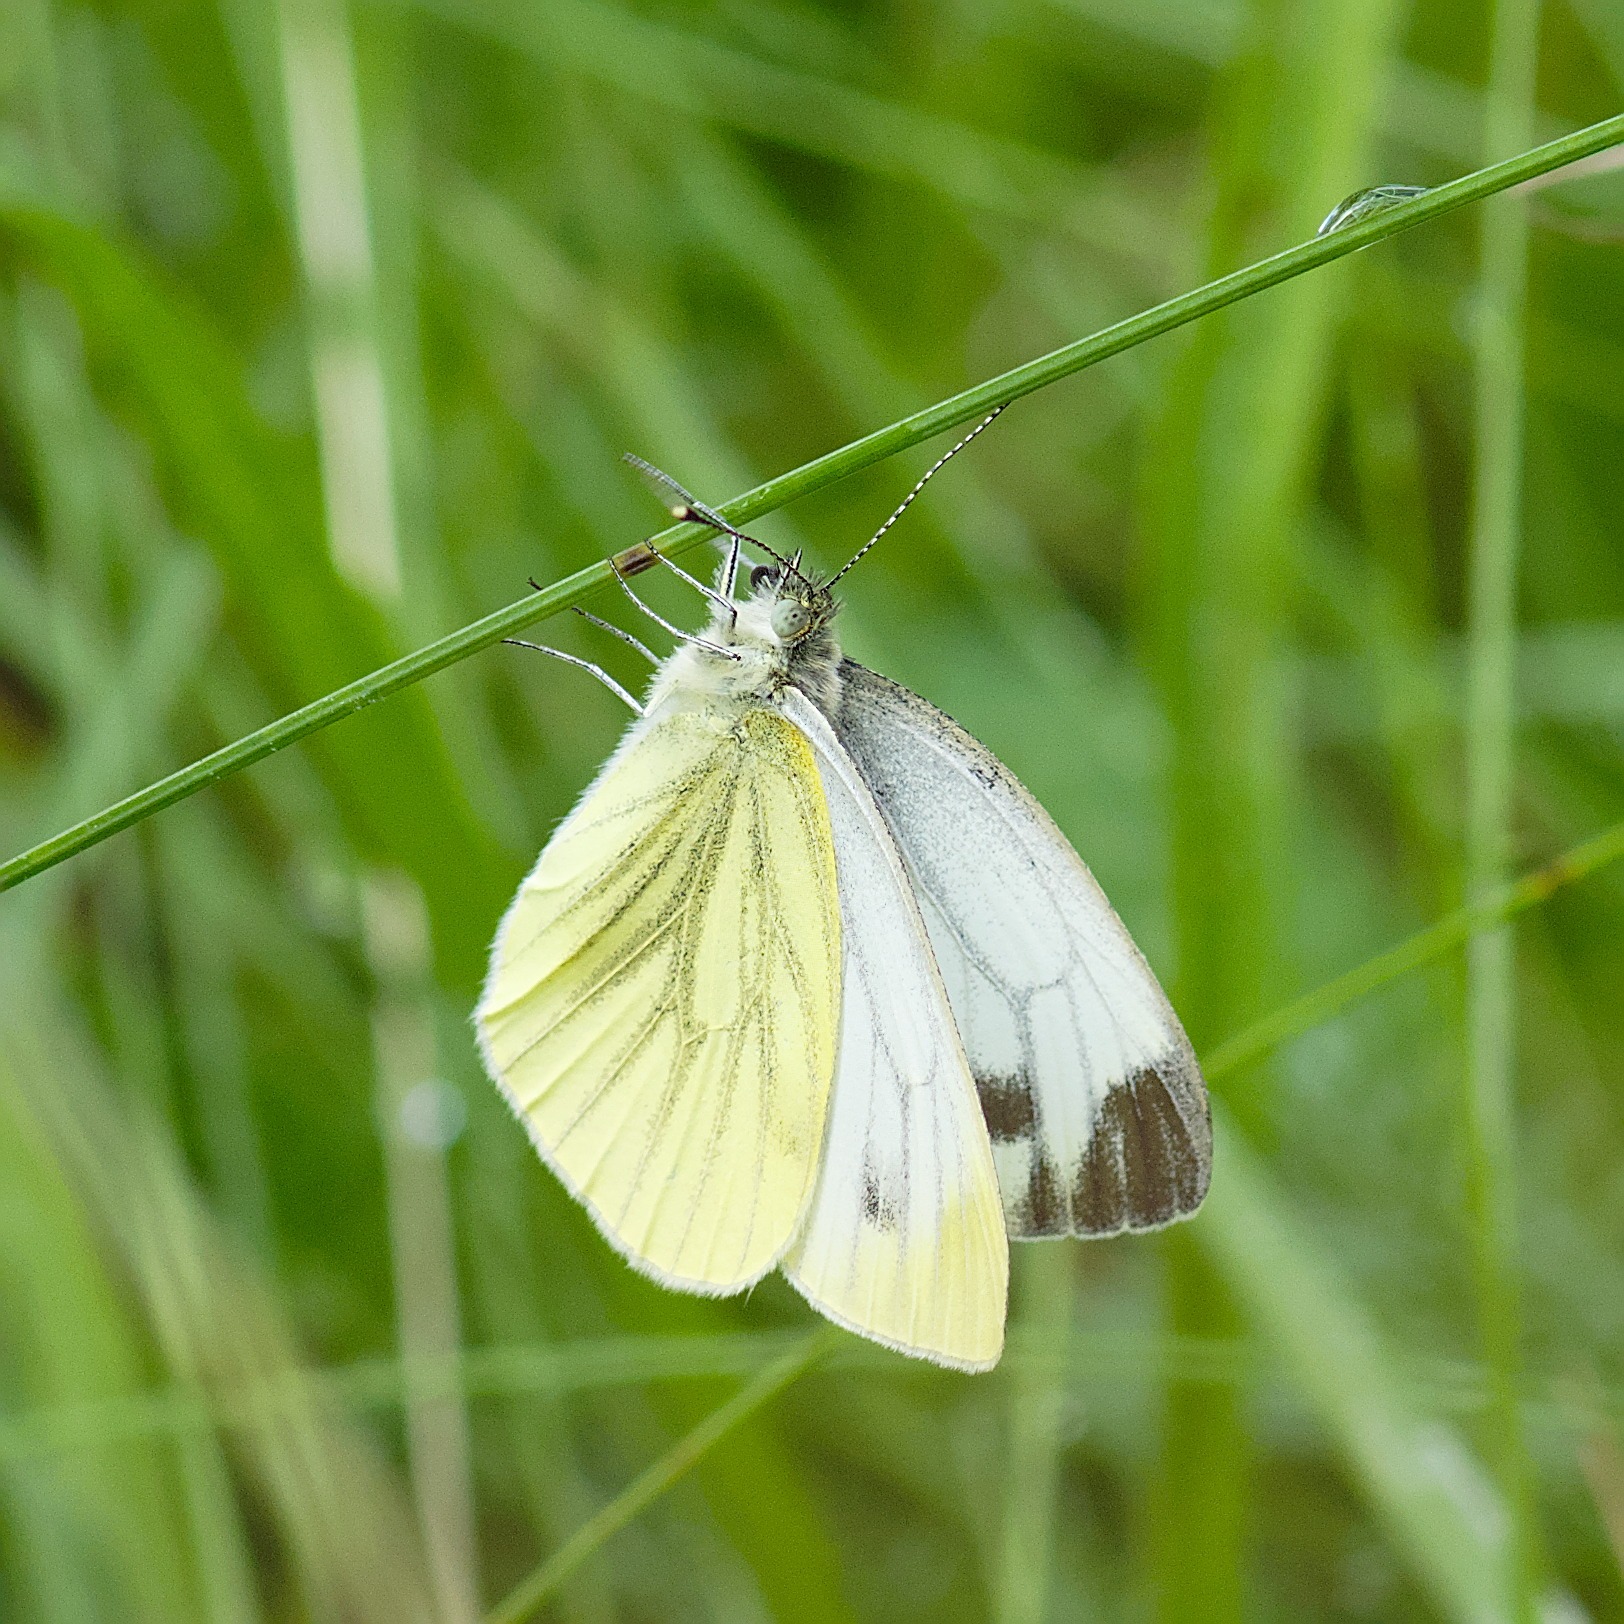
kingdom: Animalia
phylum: Arthropoda
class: Insecta
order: Lepidoptera
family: Pieridae
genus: Pieris
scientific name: Pieris napi
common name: Grønåret kålsommerfugl
